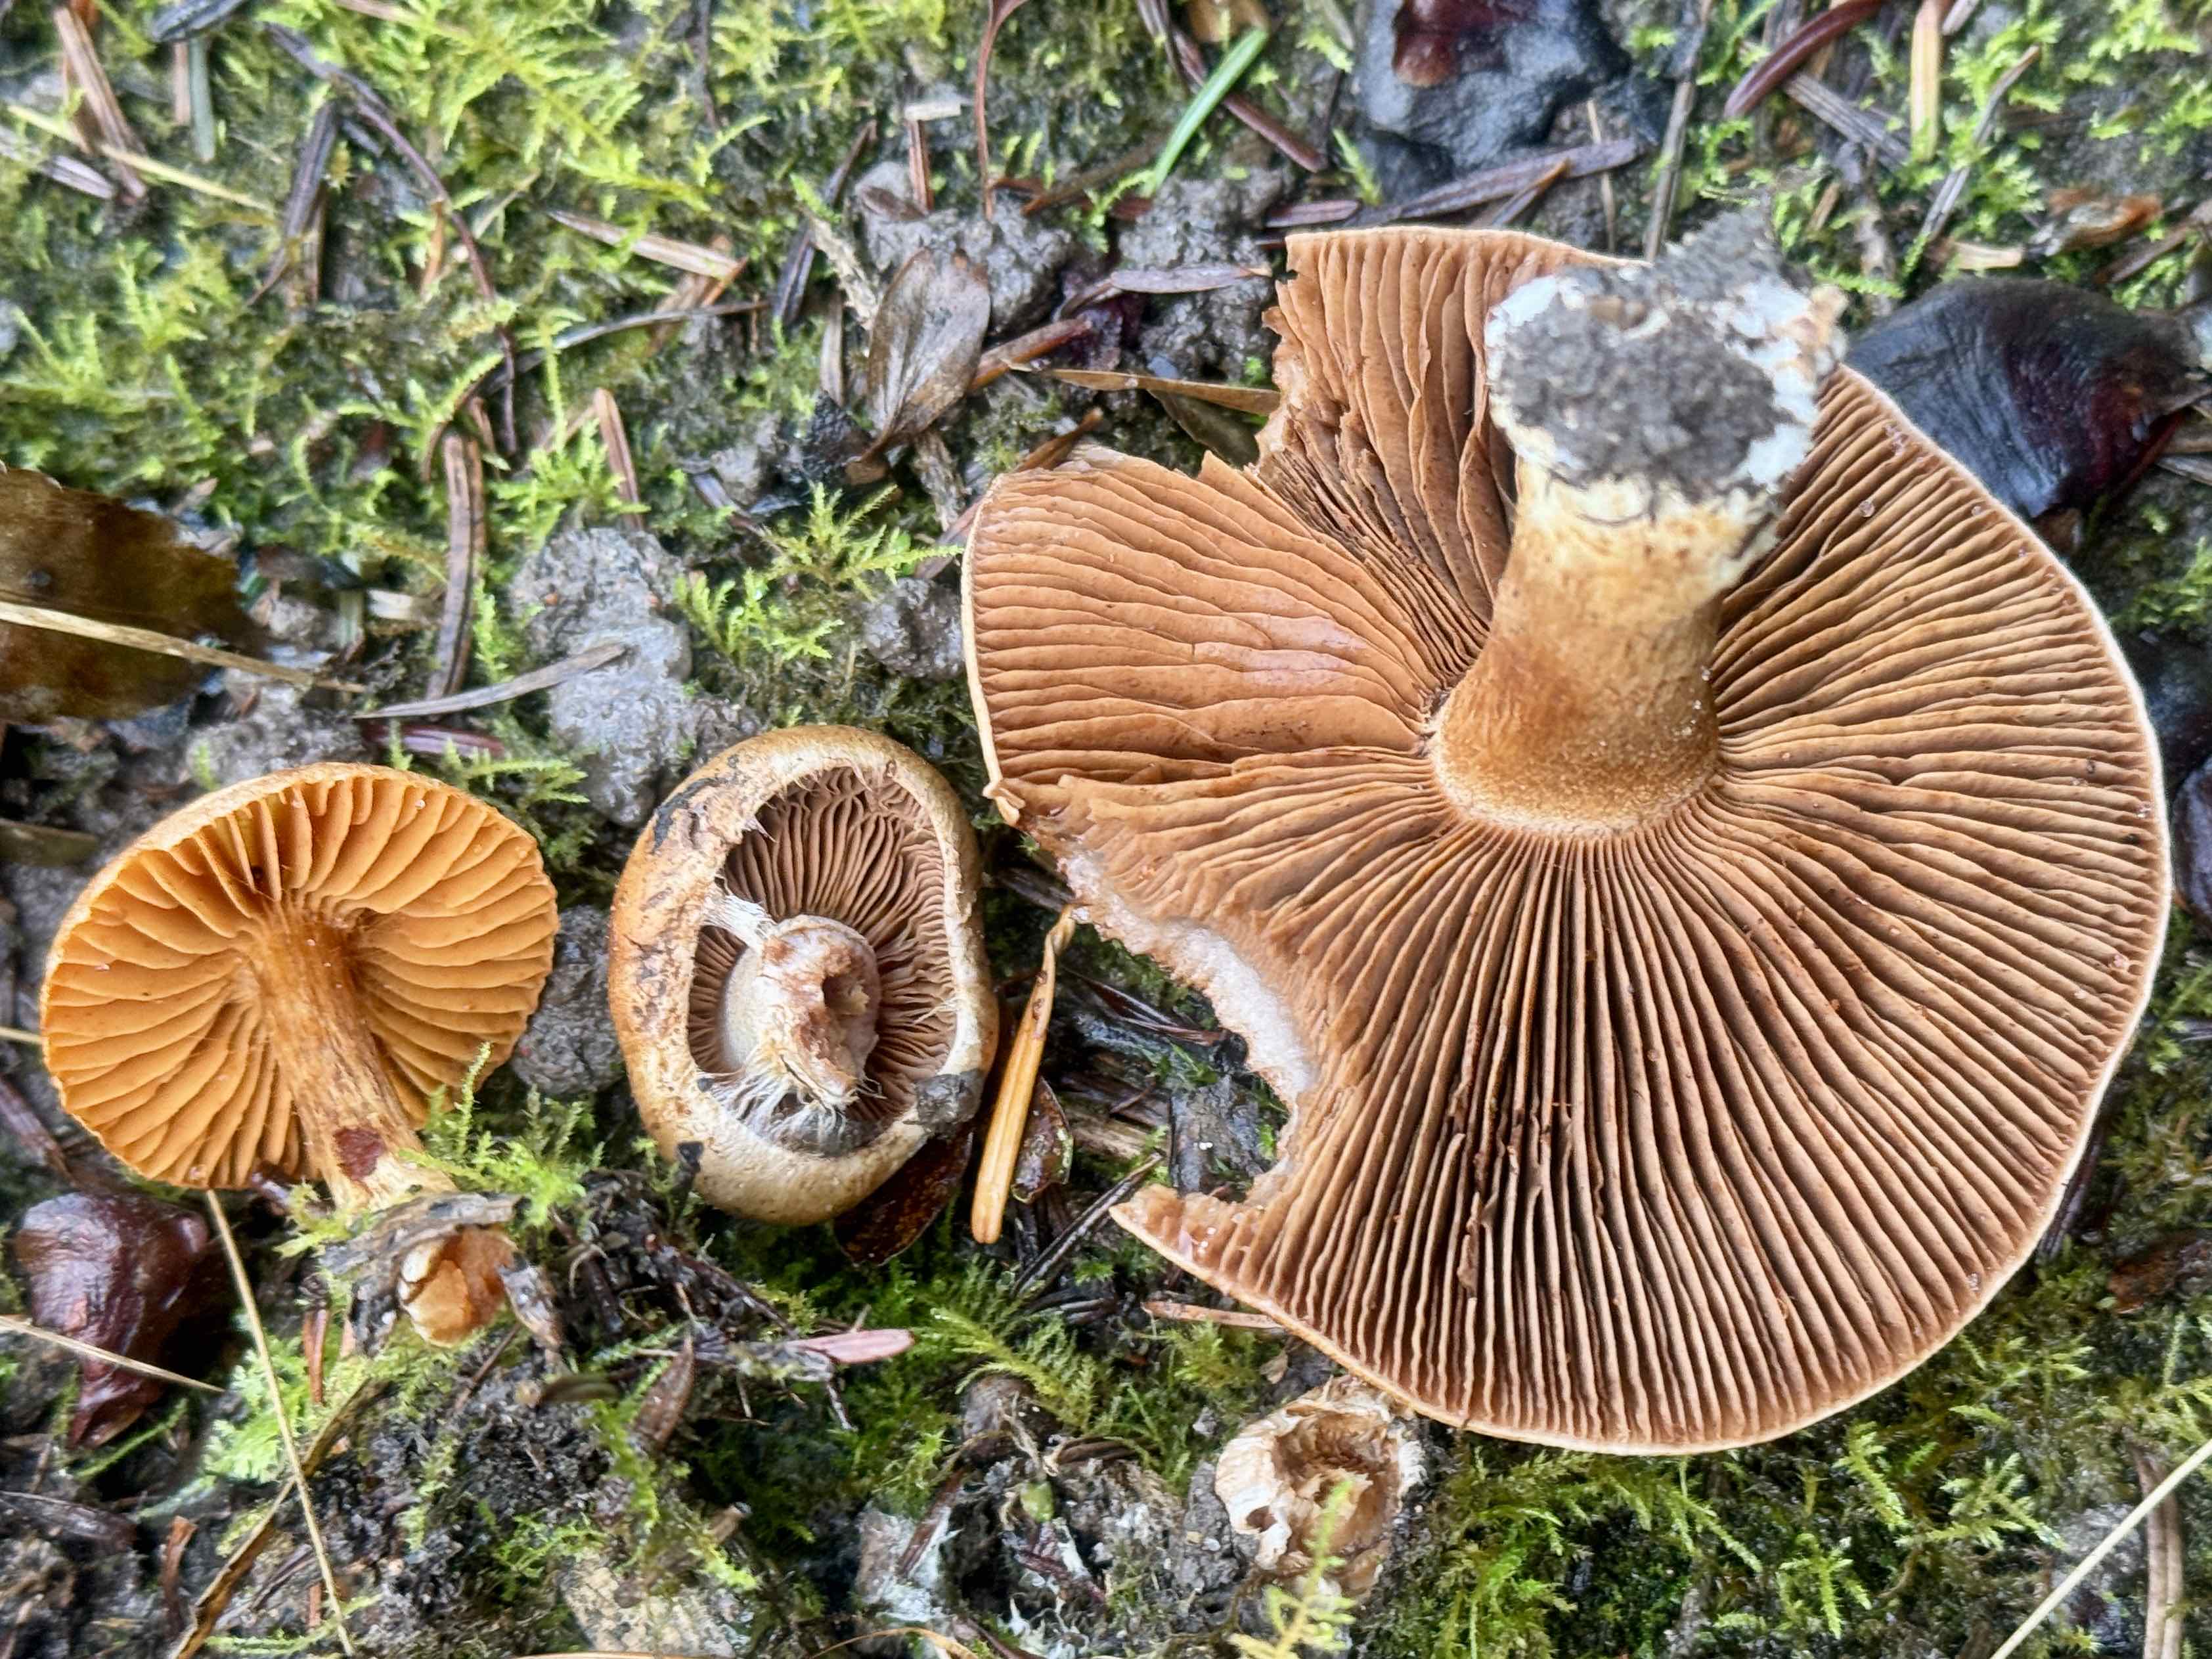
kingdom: Fungi
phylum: Basidiomycota
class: Agaricomycetes
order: Agaricales
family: Cortinariaceae
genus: Cortinarius
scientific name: Cortinarius
